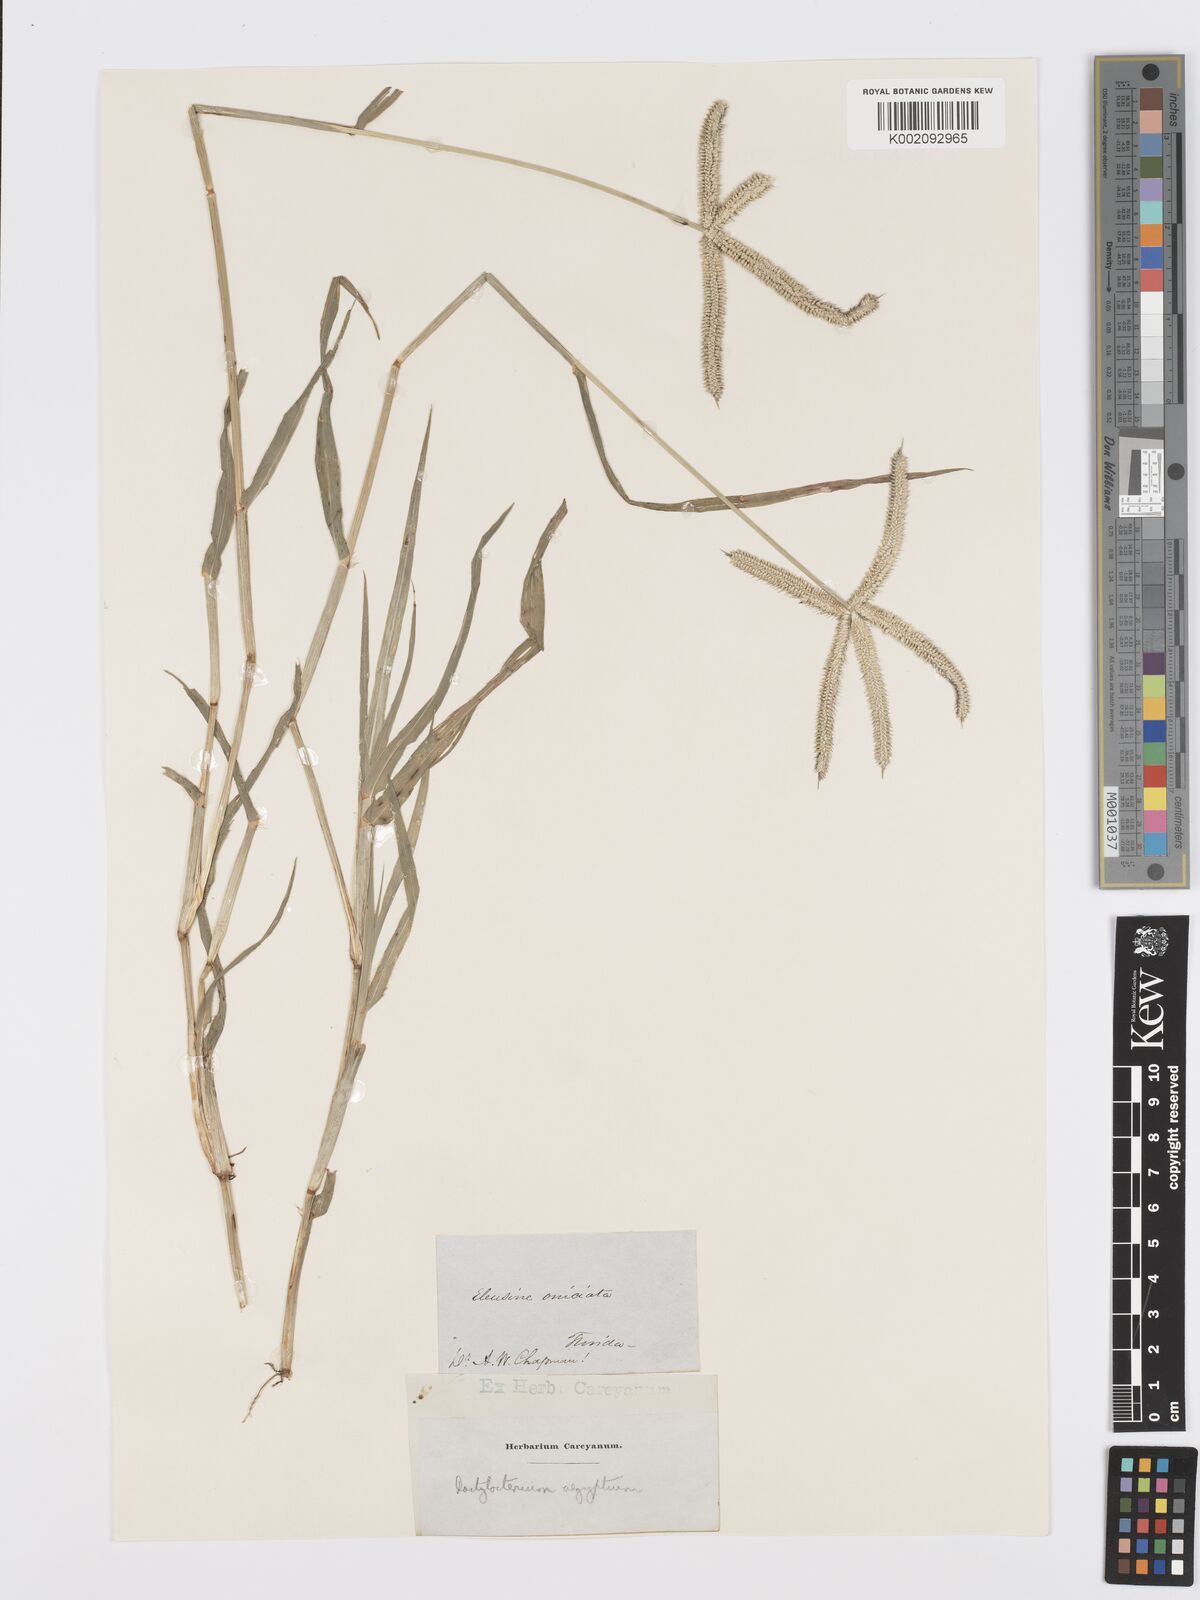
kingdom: Plantae
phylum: Tracheophyta
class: Liliopsida
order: Poales
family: Poaceae
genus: Dactyloctenium
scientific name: Dactyloctenium aegyptium
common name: Egyptian grass
